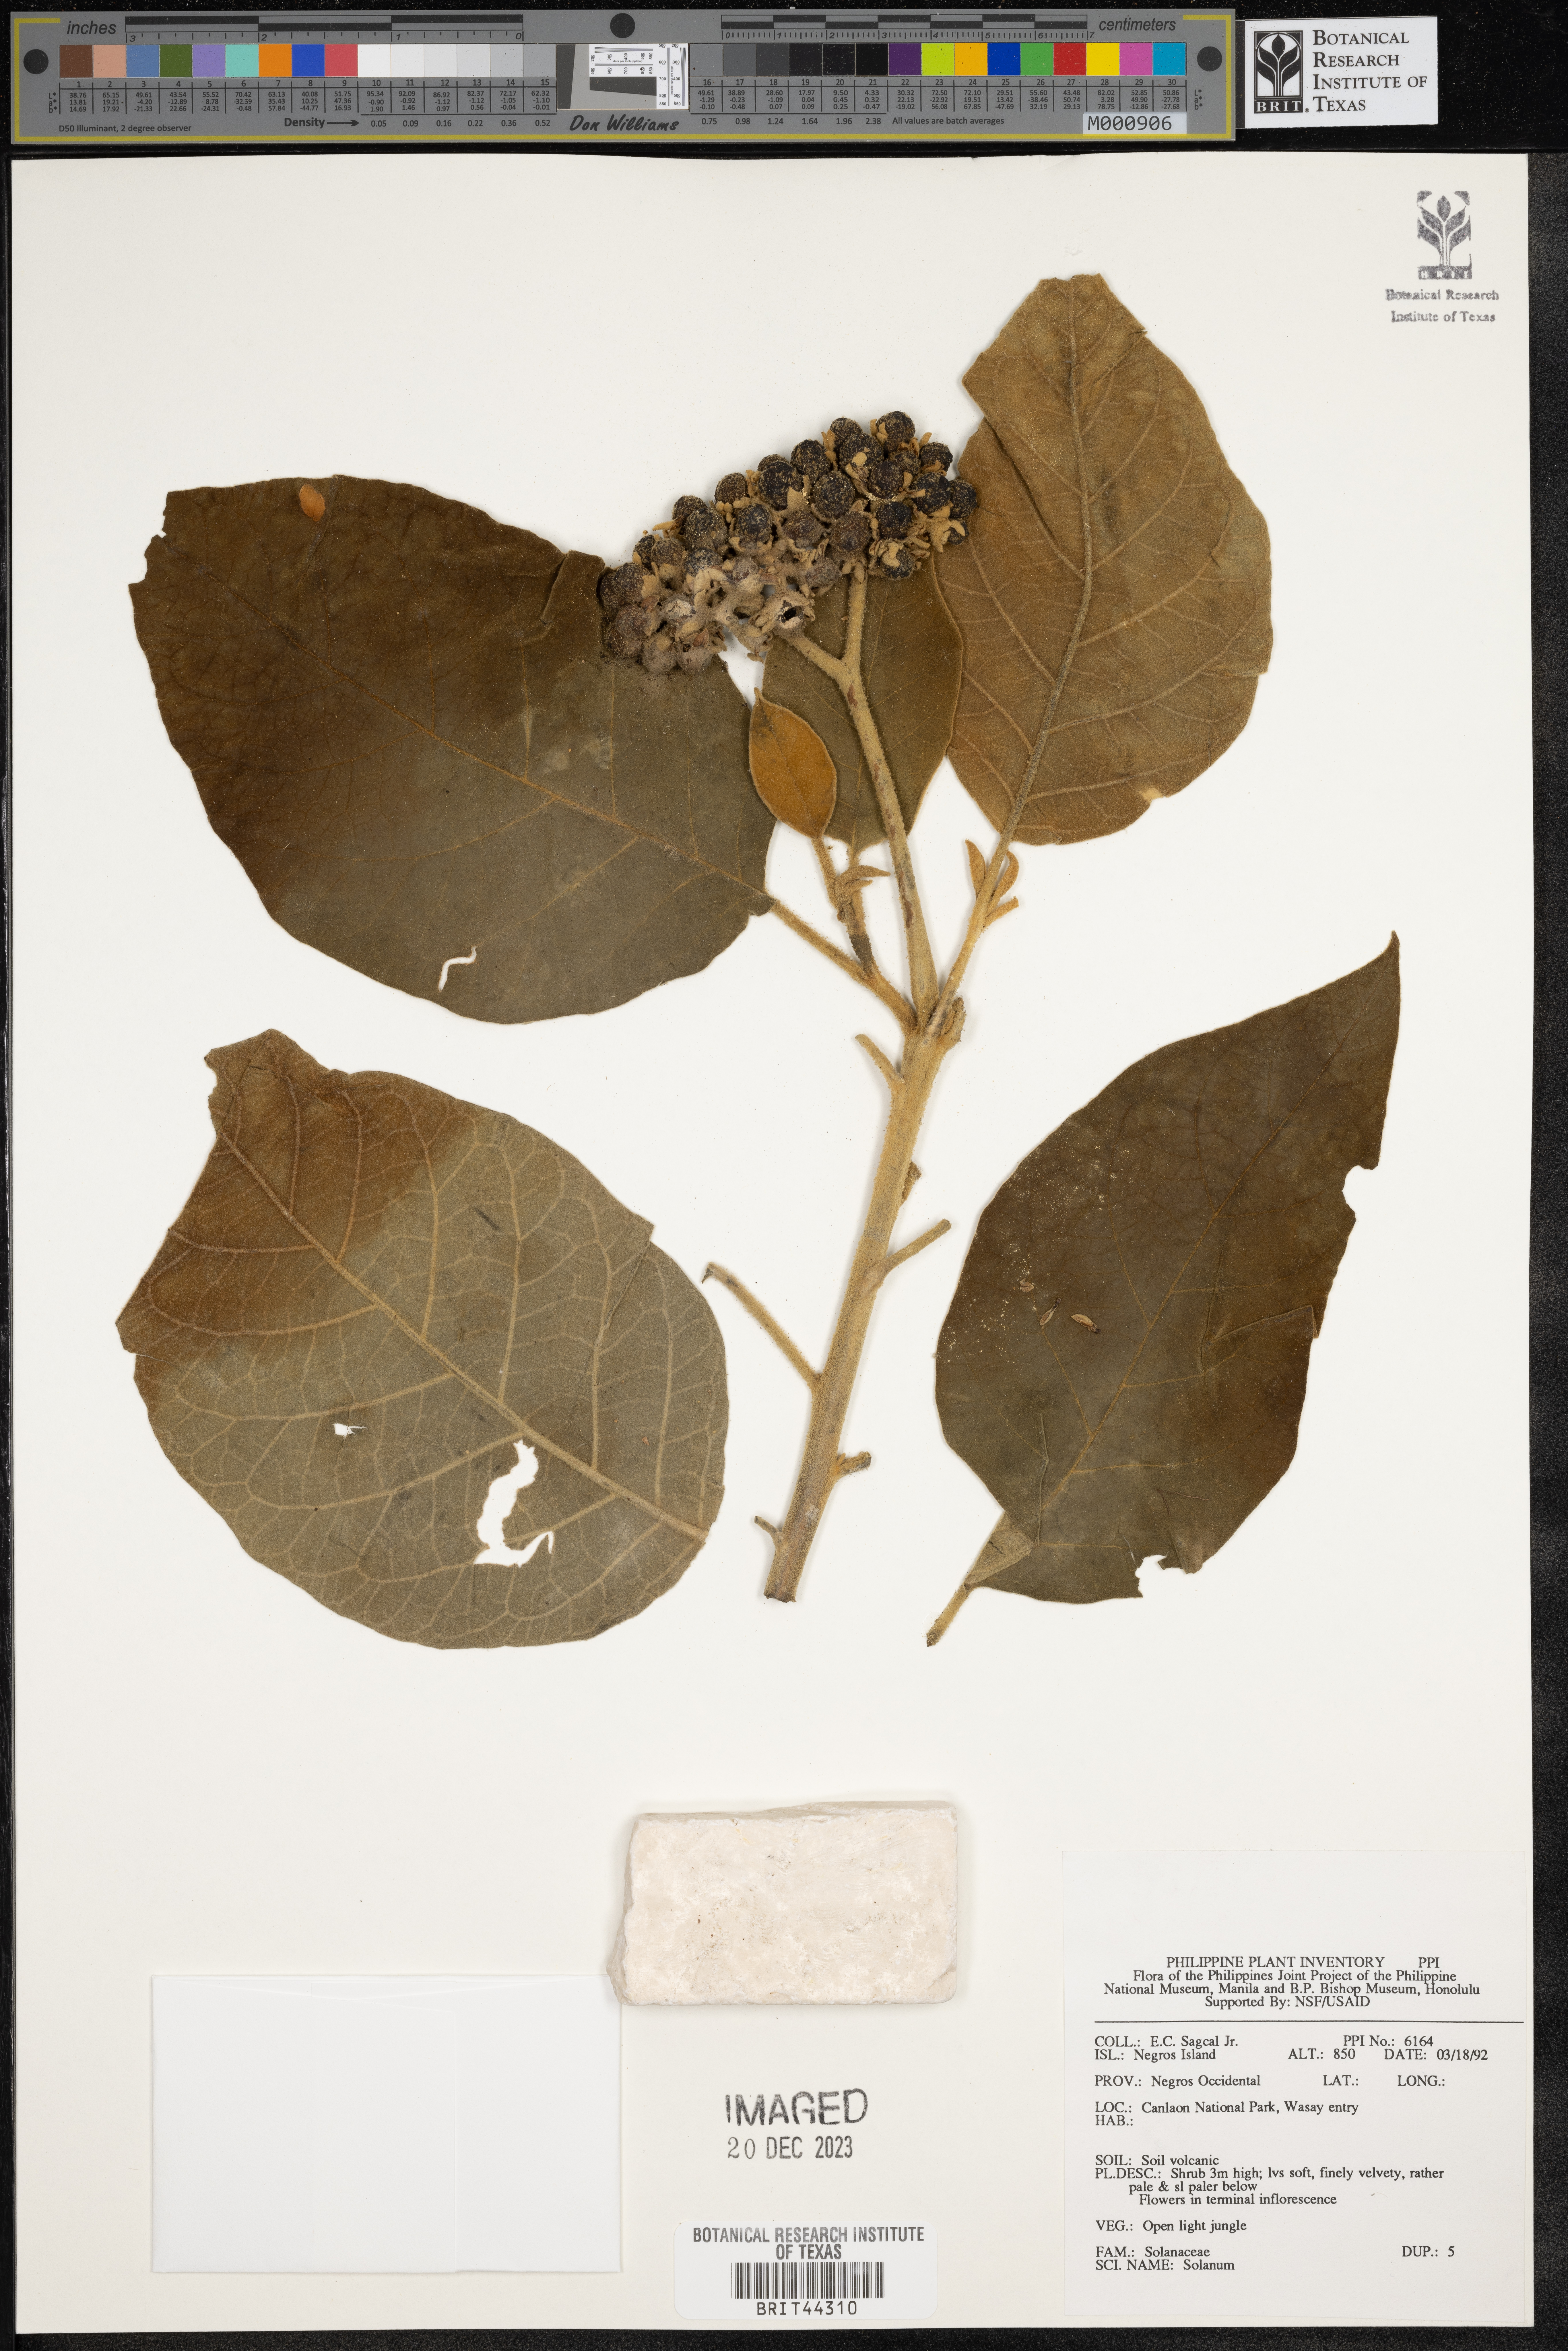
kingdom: Plantae
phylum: Tracheophyta
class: Magnoliopsida
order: Solanales
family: Solanaceae
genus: Solanum
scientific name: Solanum
